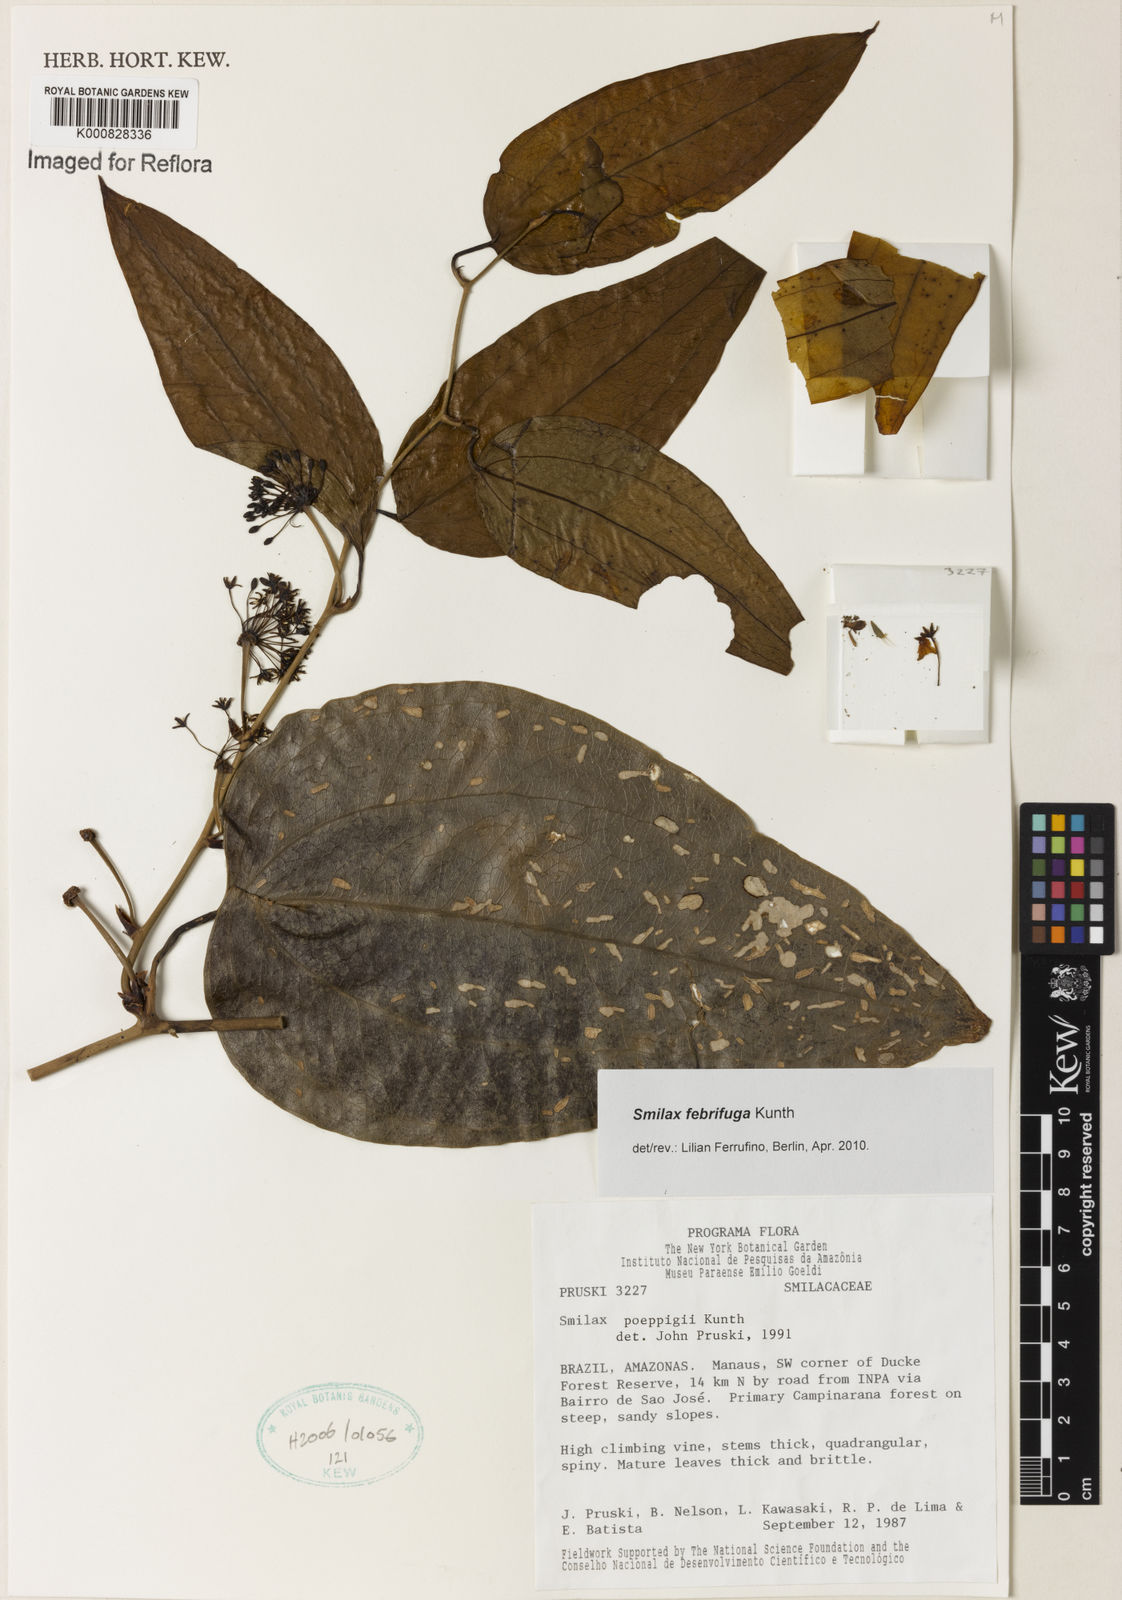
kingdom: Plantae
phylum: Tracheophyta
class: Liliopsida
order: Liliales
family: Smilacaceae
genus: Smilax
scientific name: Smilax purhampuy
